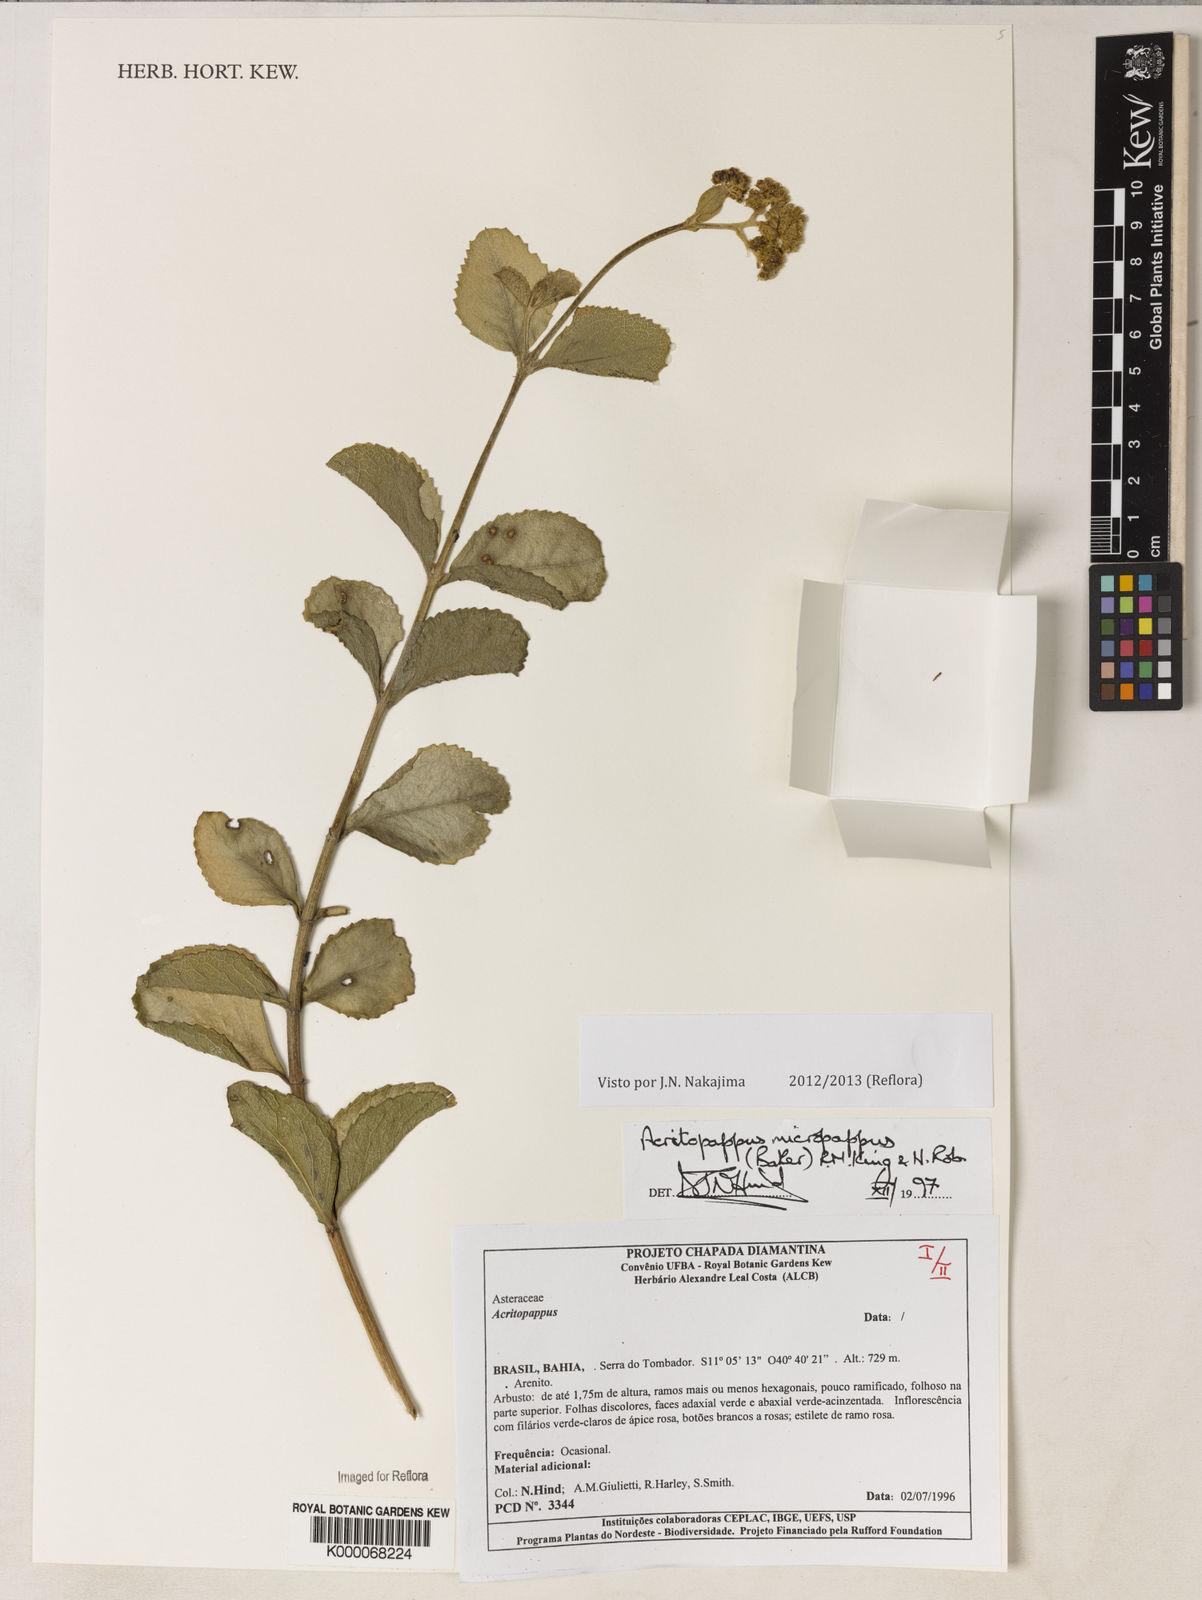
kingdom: Plantae
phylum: Tracheophyta
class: Magnoliopsida
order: Asterales
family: Asteraceae
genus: Acritopappus
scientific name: Acritopappus micropappus
